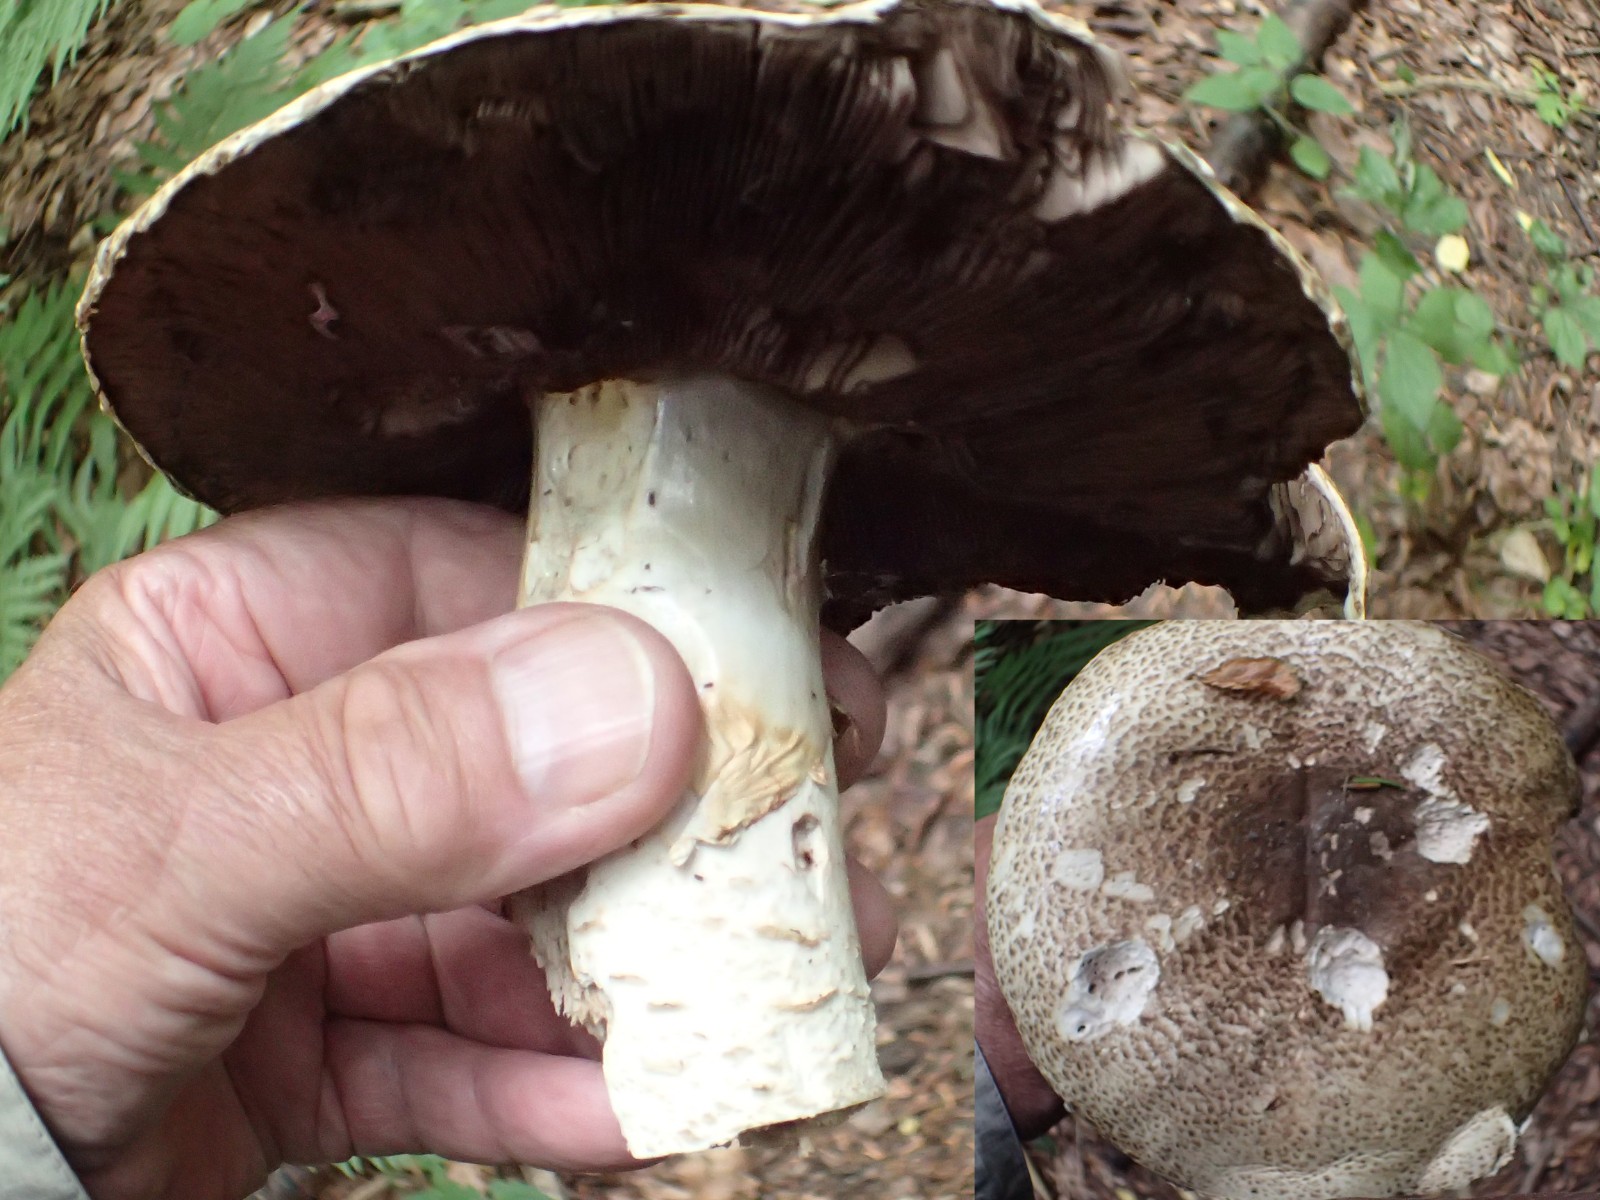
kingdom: Fungi
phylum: Basidiomycota
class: Agaricomycetes
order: Agaricales
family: Agaricaceae
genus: Agaricus
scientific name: Agaricus augustus
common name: prægtig champignon
